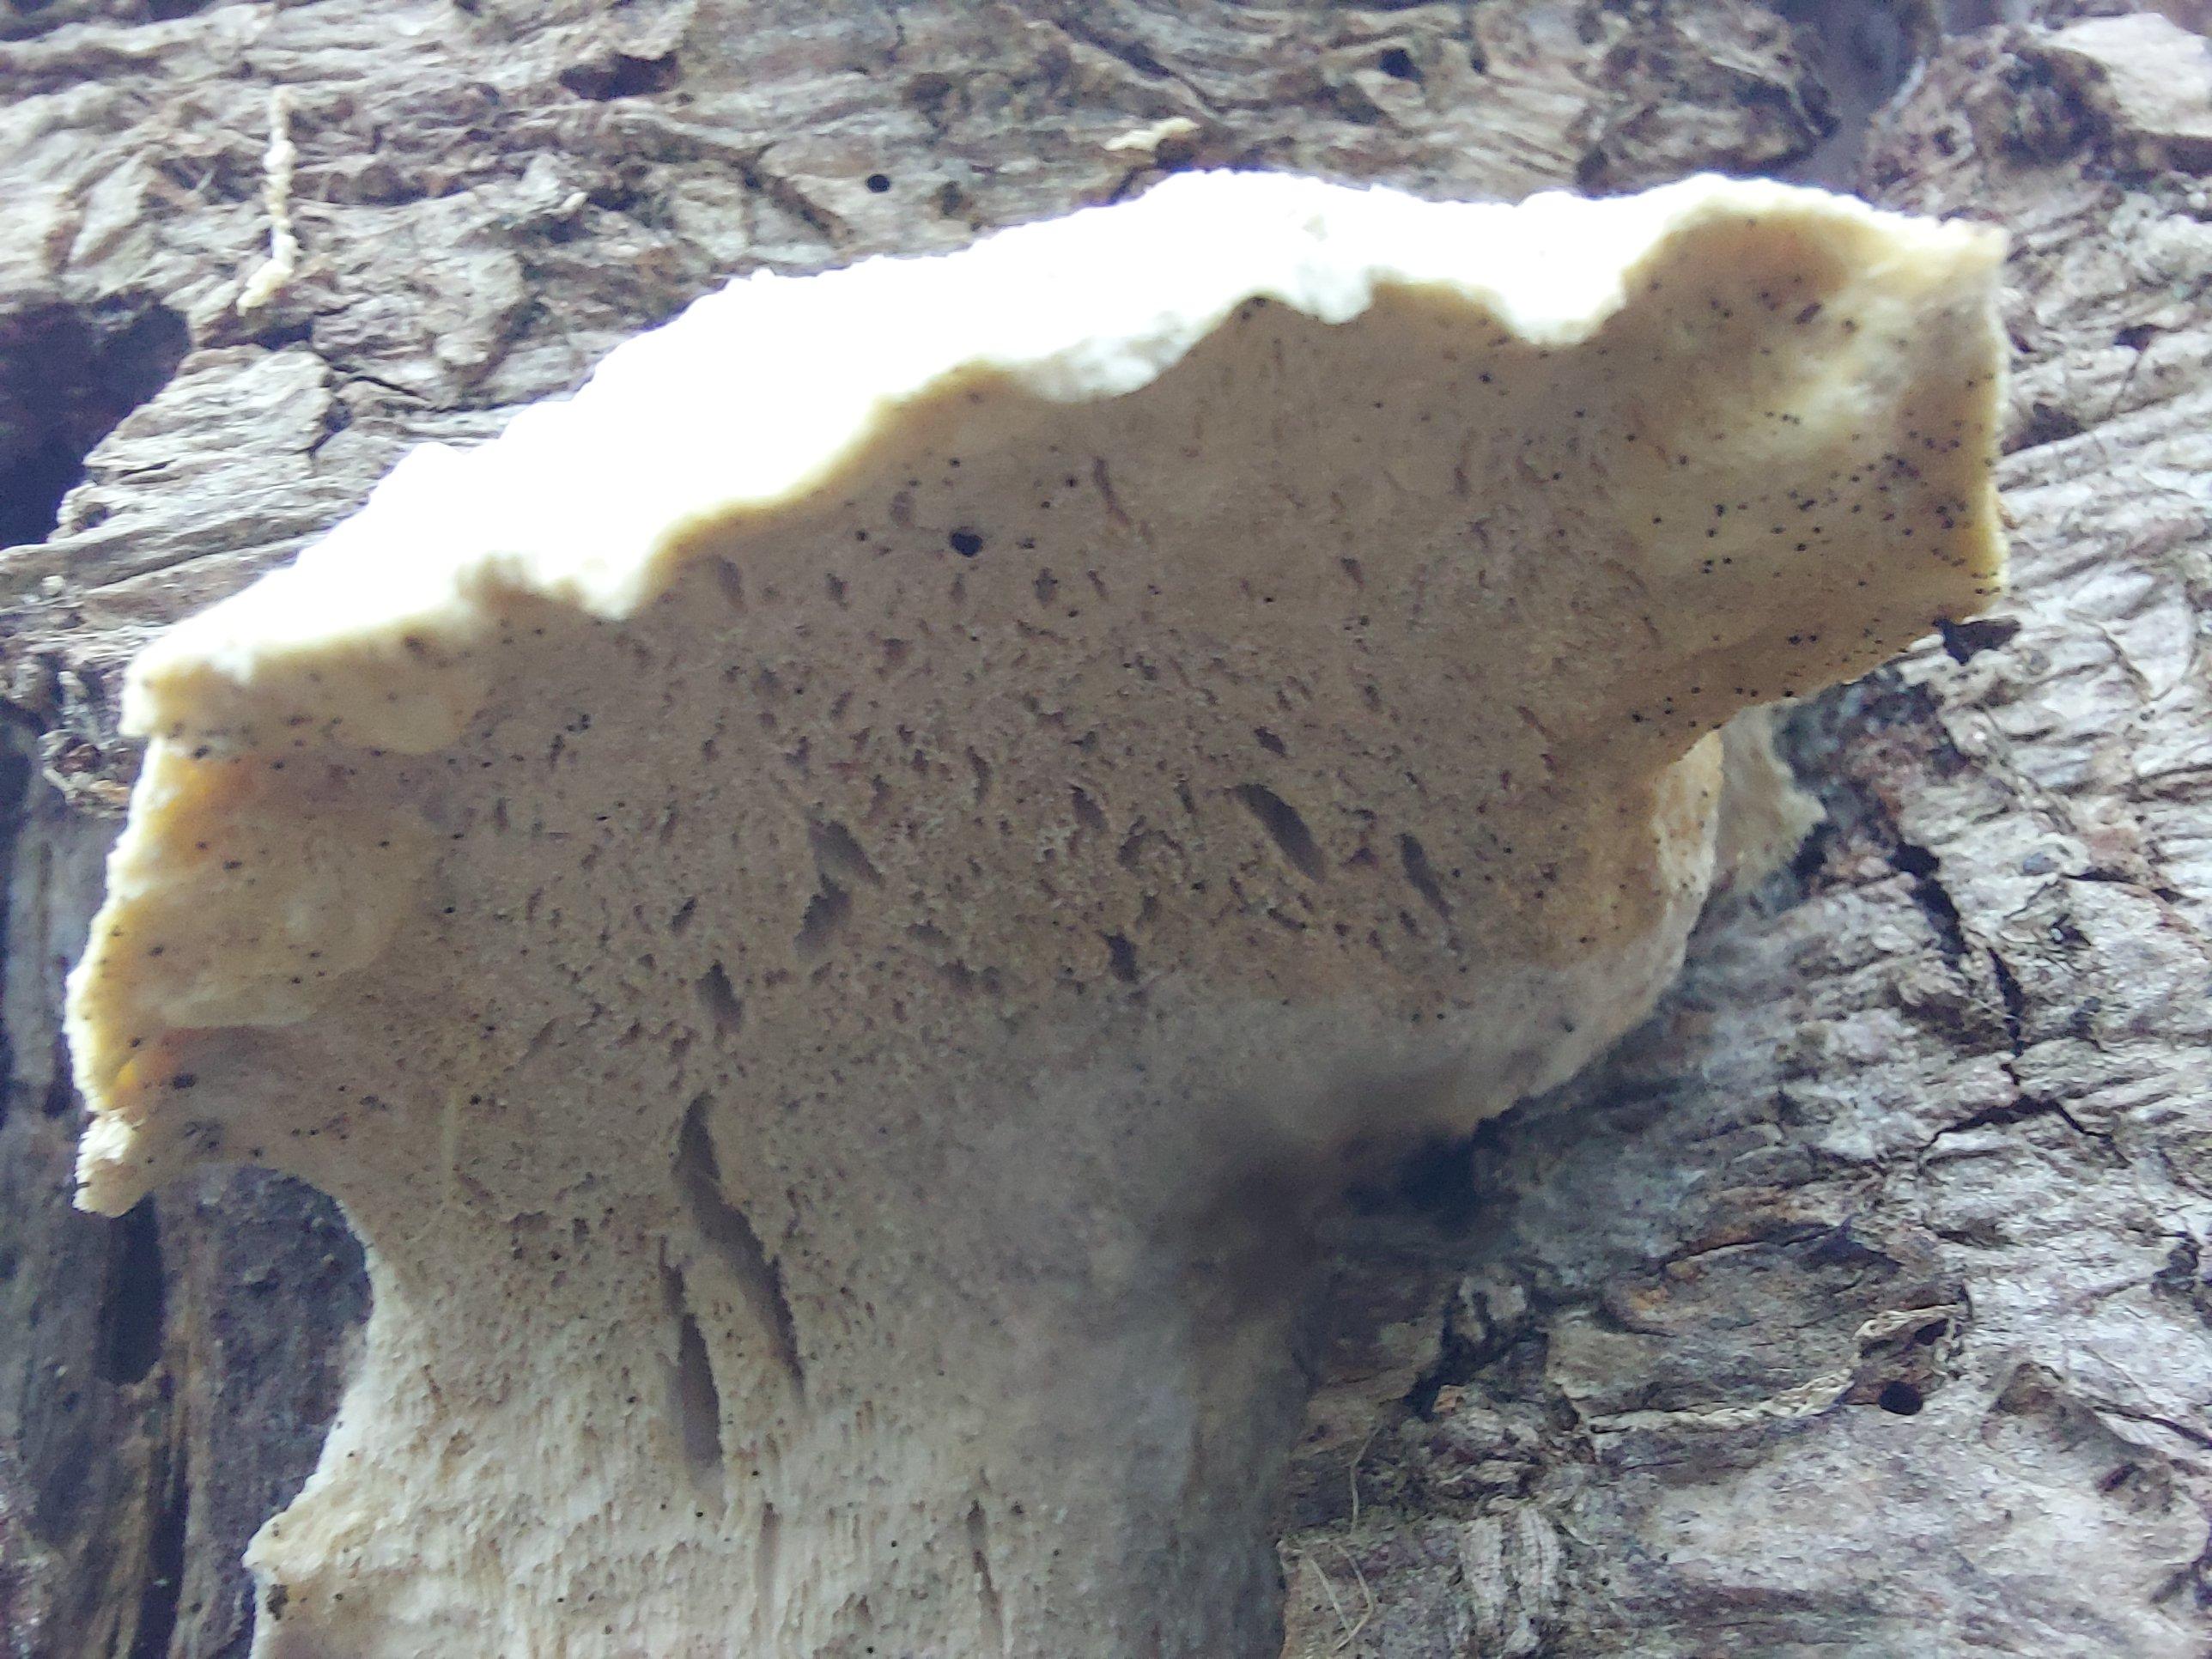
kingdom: Fungi
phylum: Basidiomycota
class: Agaricomycetes
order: Polyporales
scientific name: Polyporales
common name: poresvampordenen
